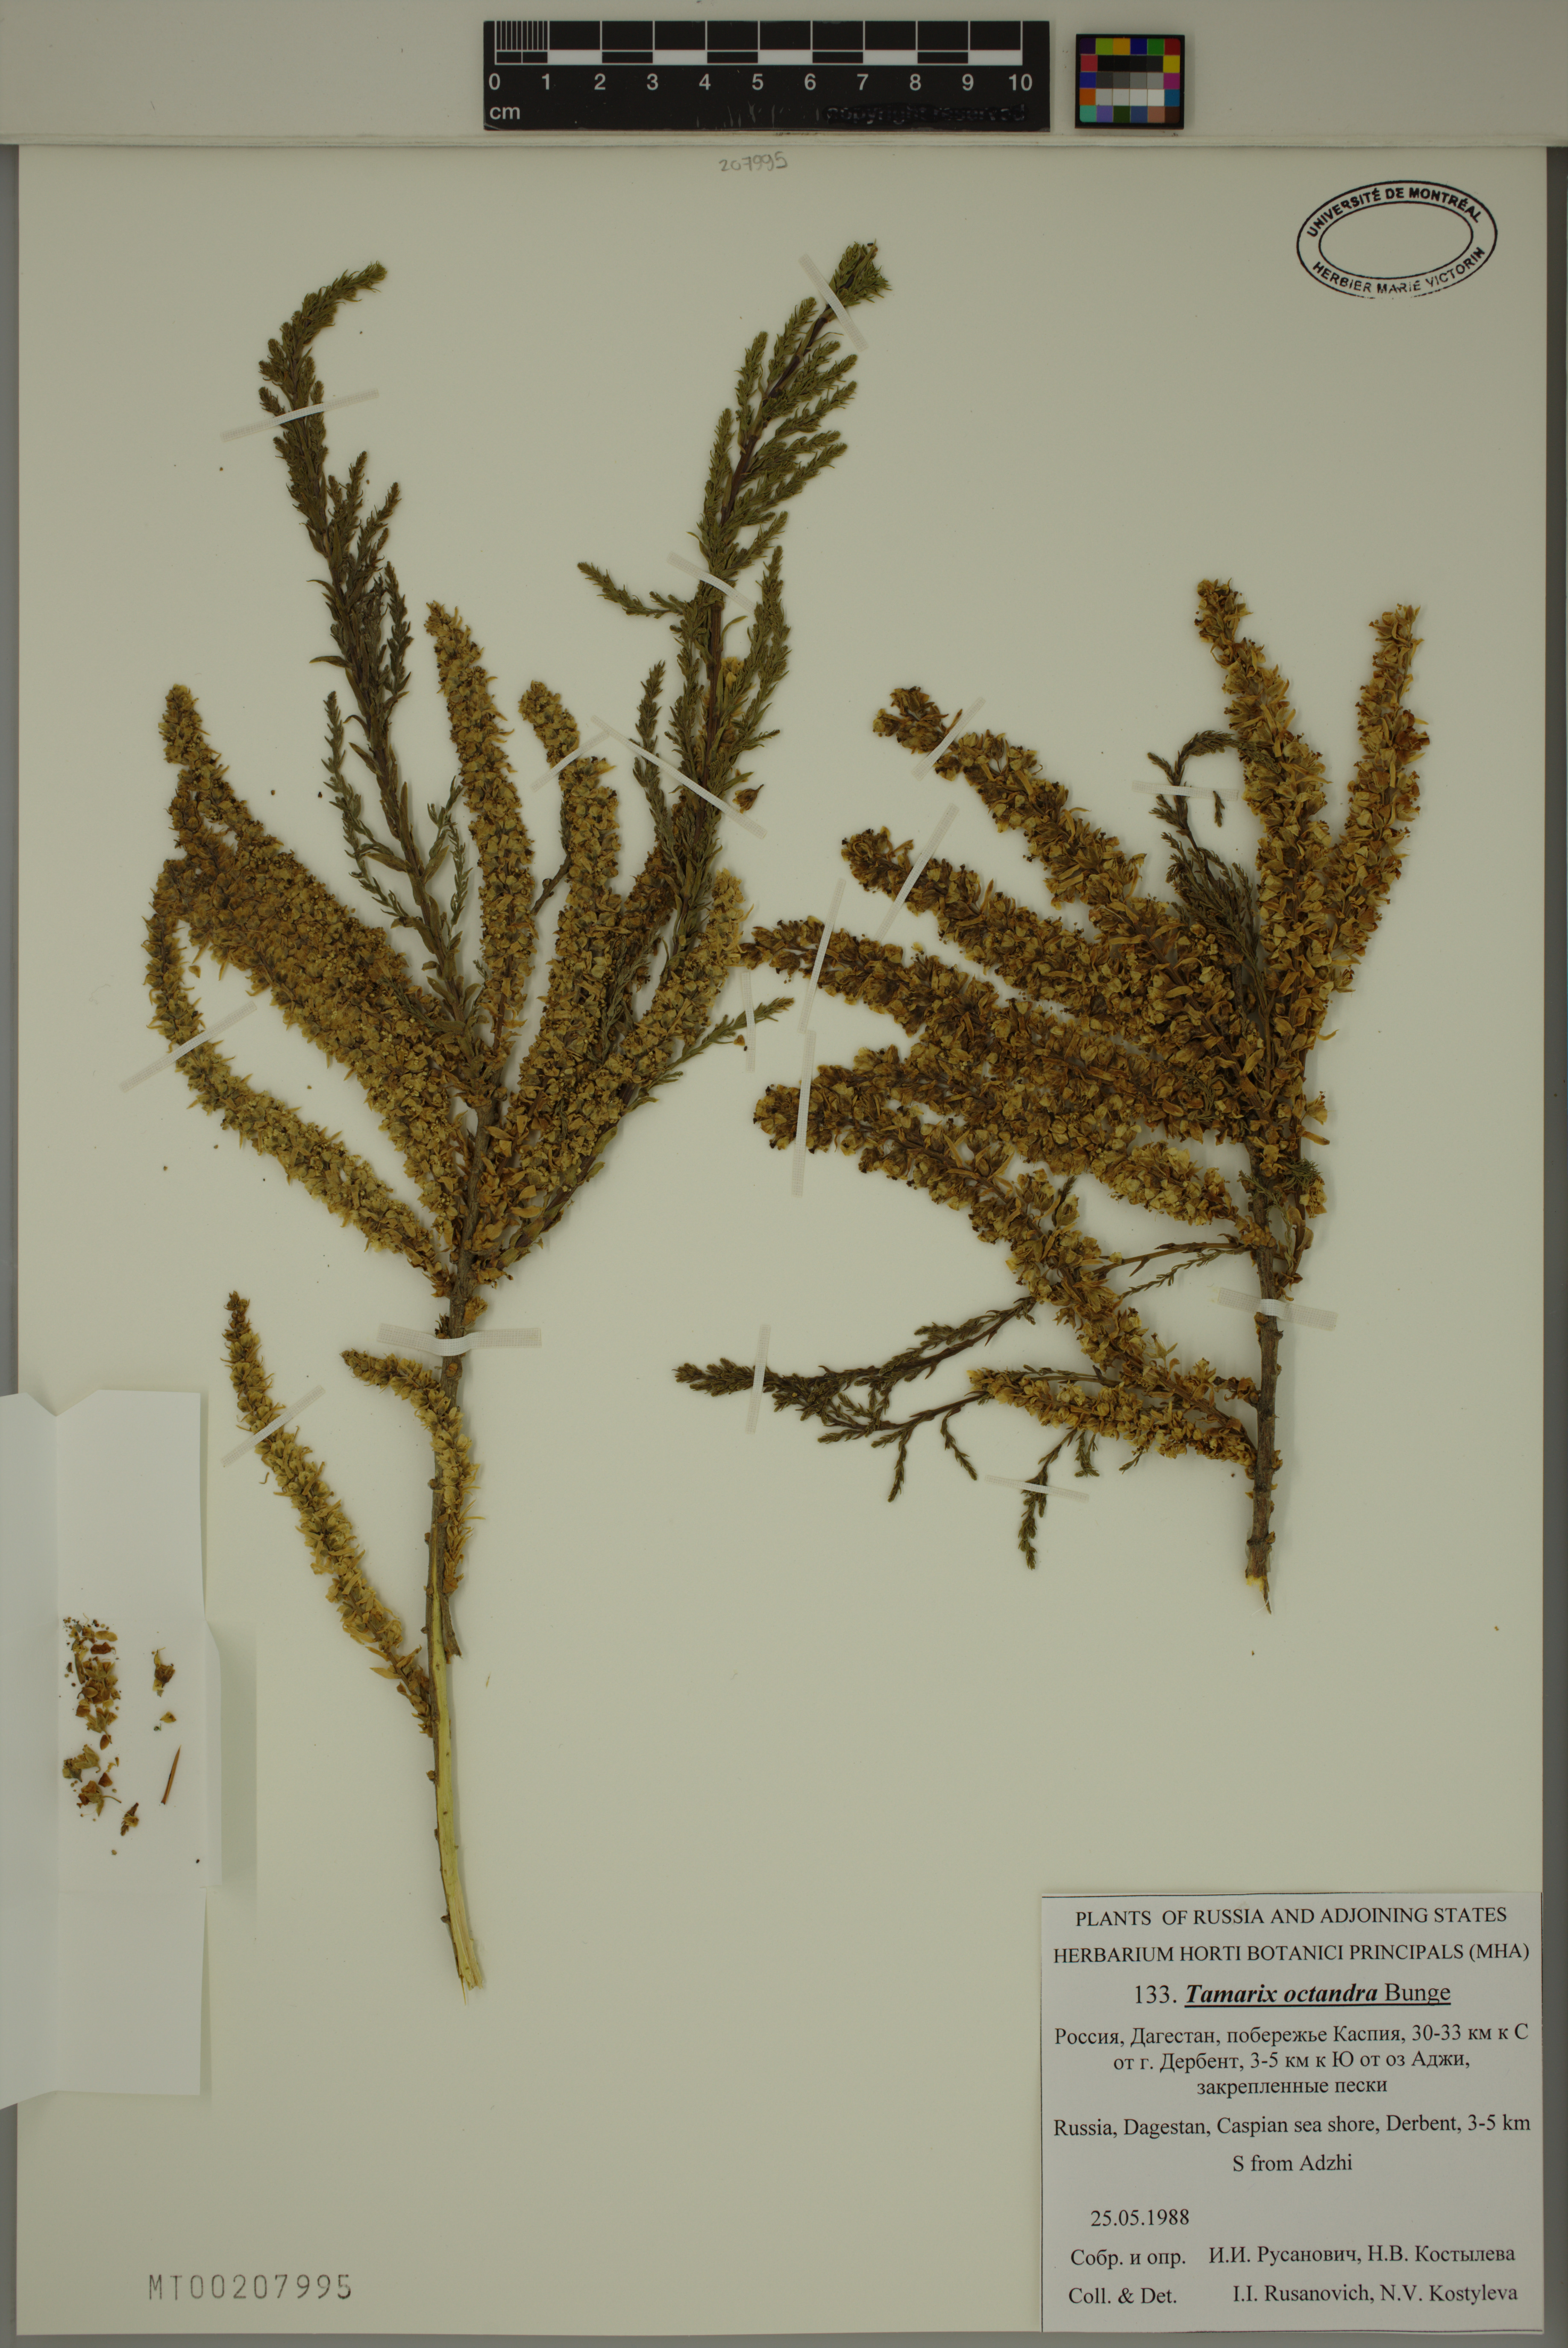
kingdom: Plantae
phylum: Tracheophyta
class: Magnoliopsida
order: Caryophyllales
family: Tamaricaceae
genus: Tamarix
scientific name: Tamarix octandra
